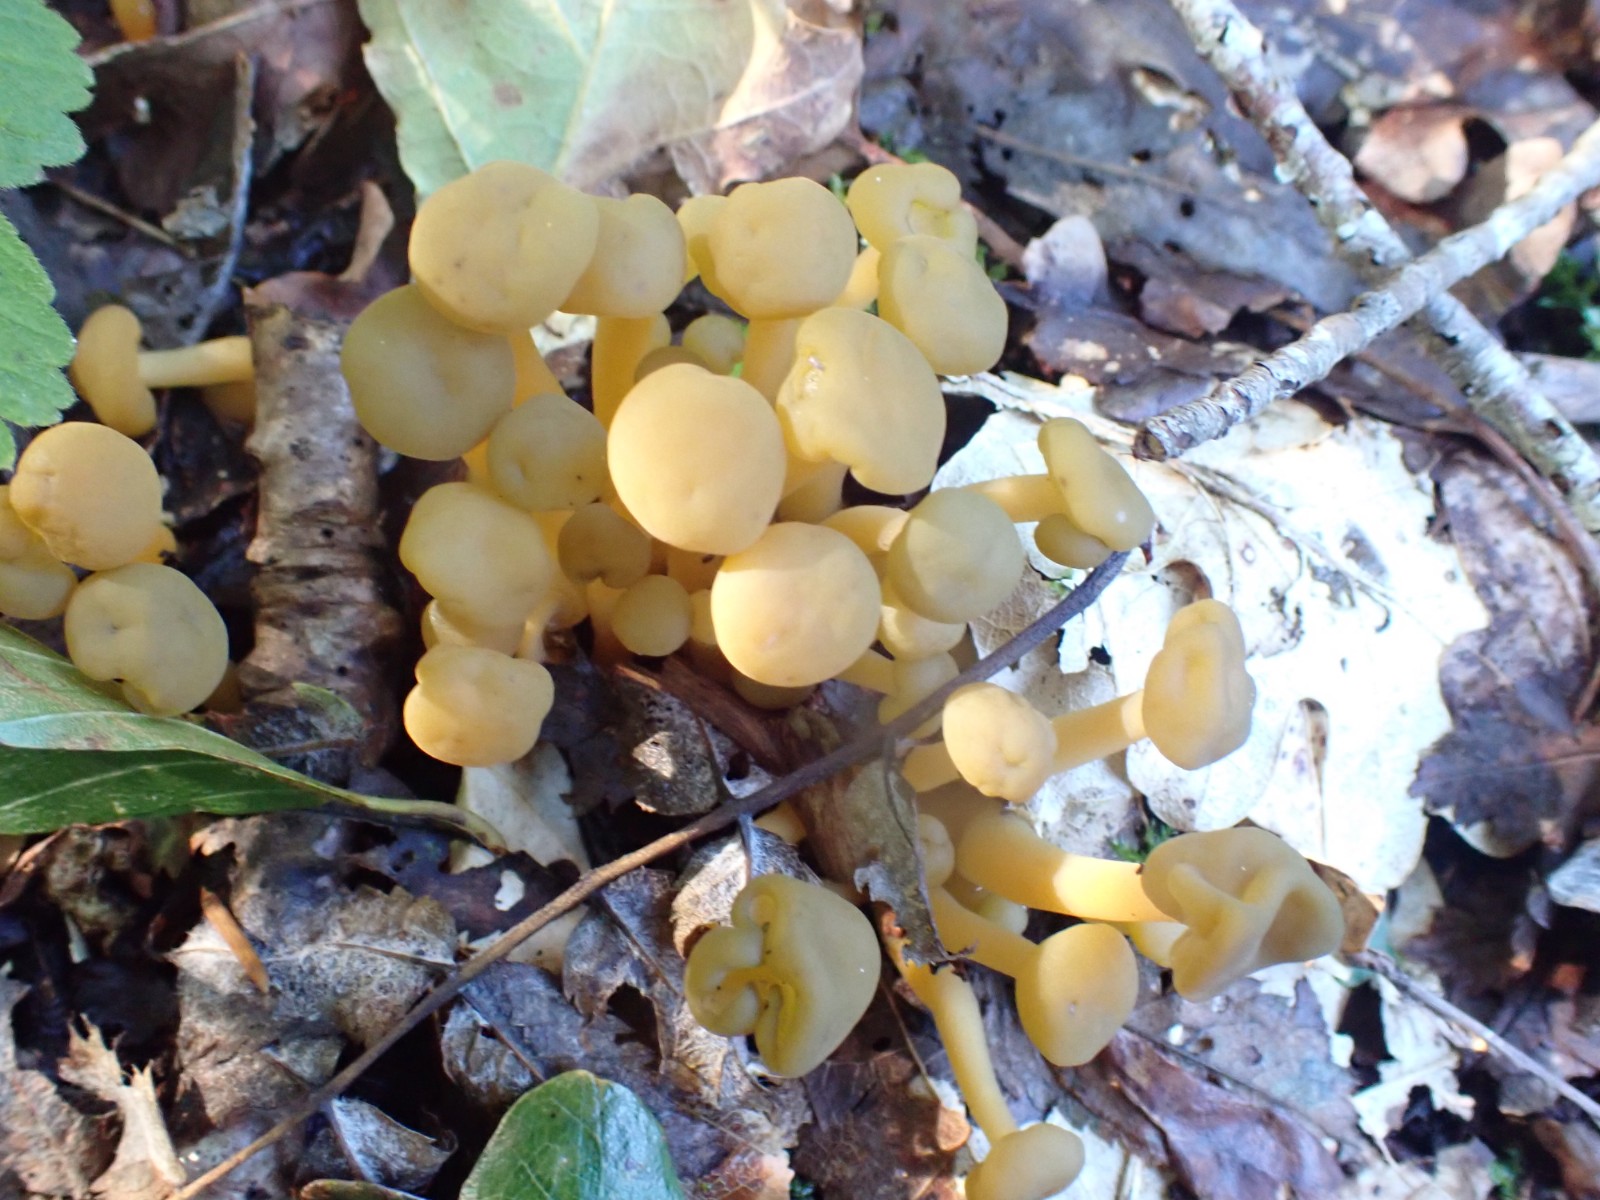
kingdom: Fungi
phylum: Ascomycota
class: Leotiomycetes
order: Leotiales
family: Leotiaceae
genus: Leotia
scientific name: Leotia lubrica
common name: ravsvamp
